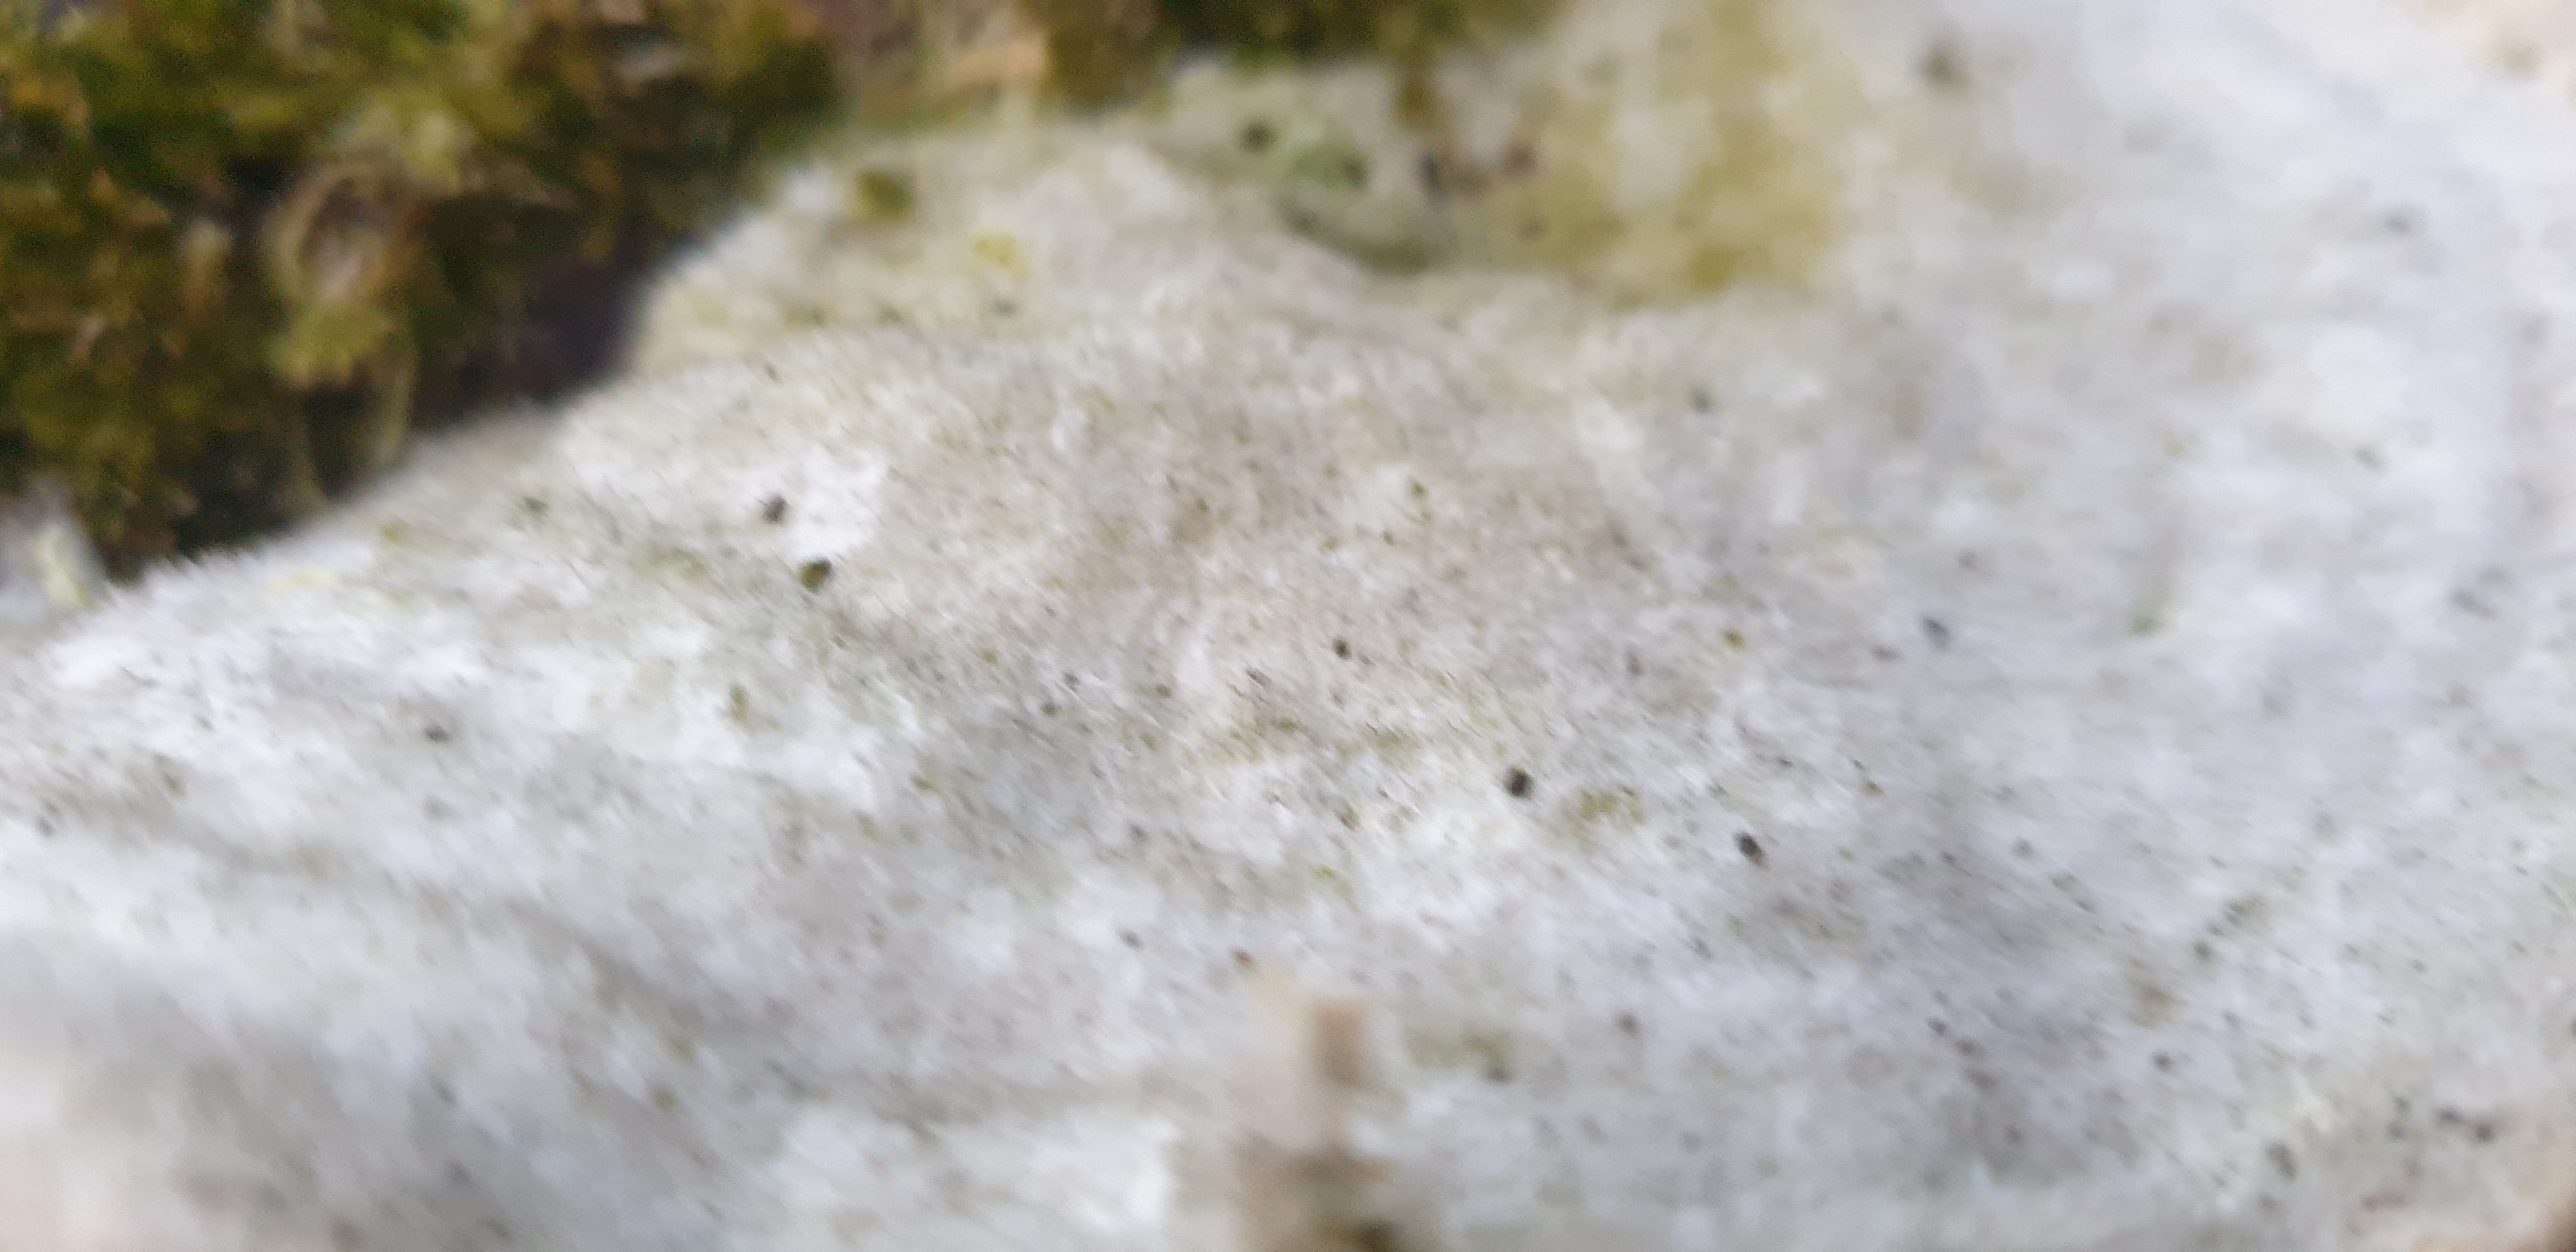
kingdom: Fungi
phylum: Basidiomycota
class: Agaricomycetes
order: Polyporales
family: Polyporaceae
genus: Trametes
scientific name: Trametes hirsuta
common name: håret læderporesvamp
